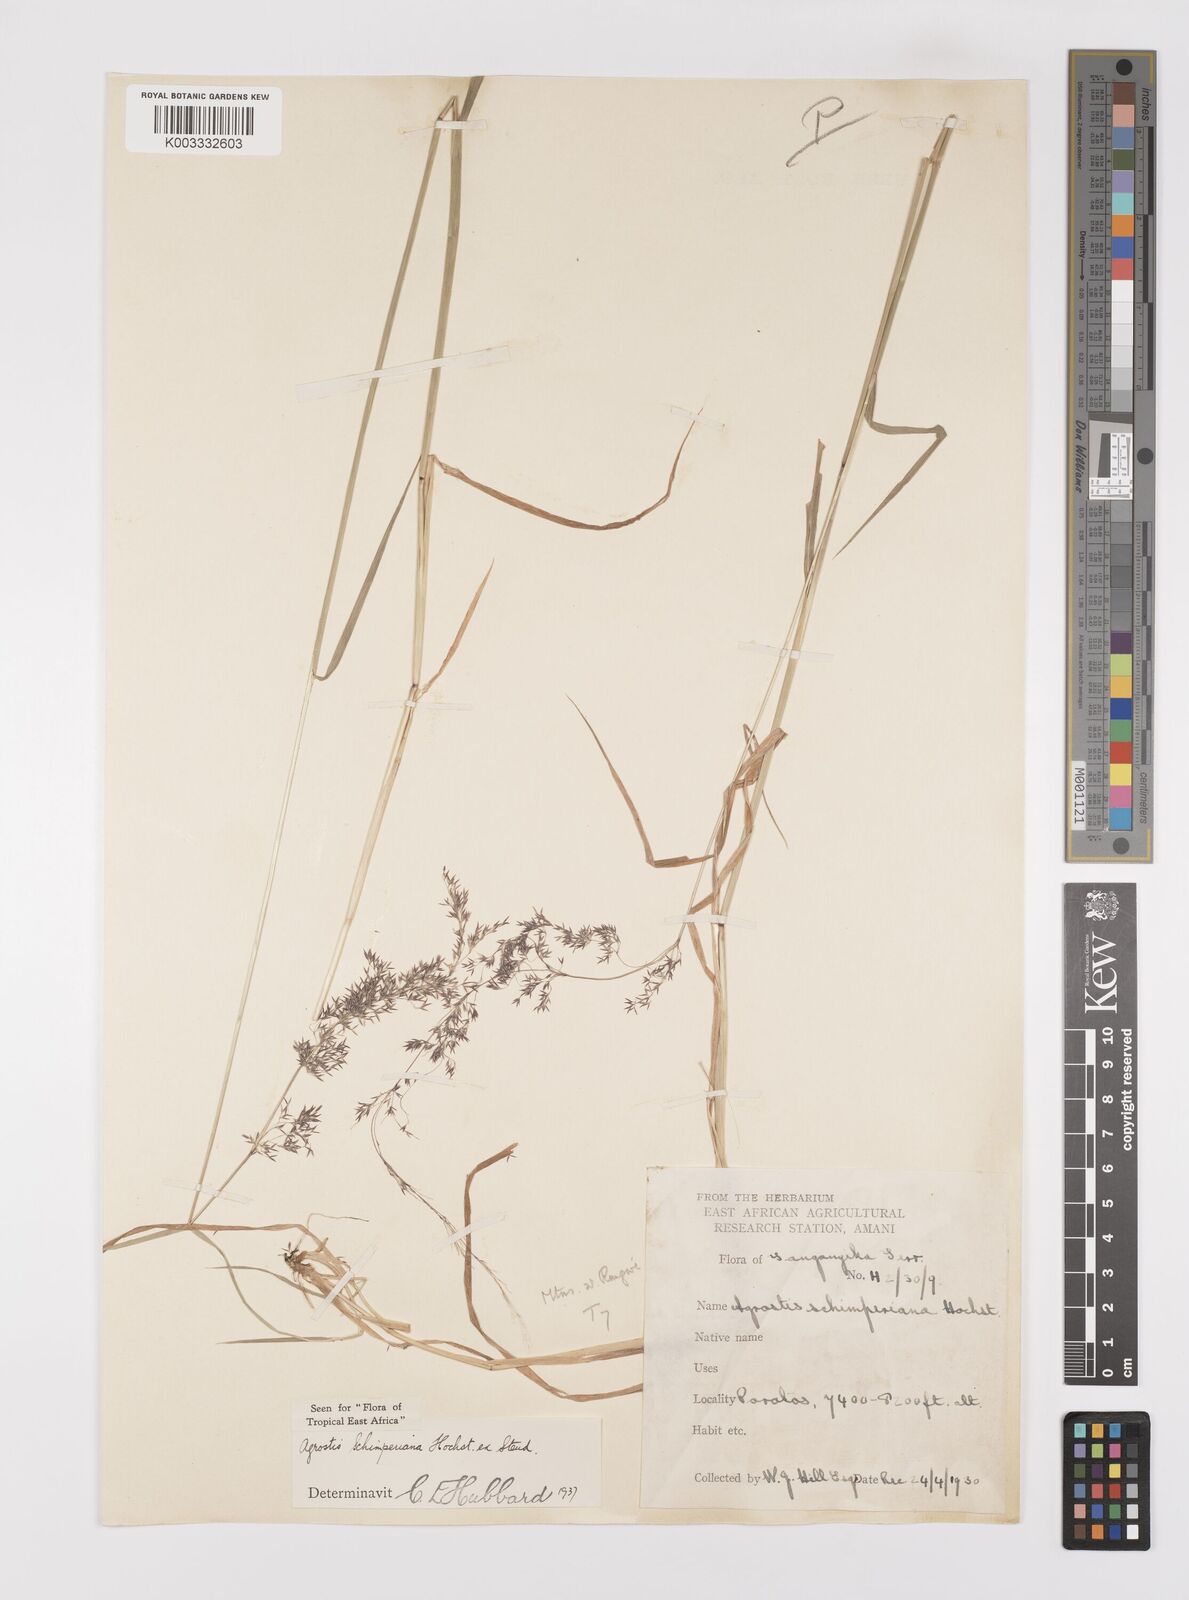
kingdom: Plantae
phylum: Tracheophyta
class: Liliopsida
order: Poales
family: Poaceae
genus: Polypogon
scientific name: Polypogon schimperianus
